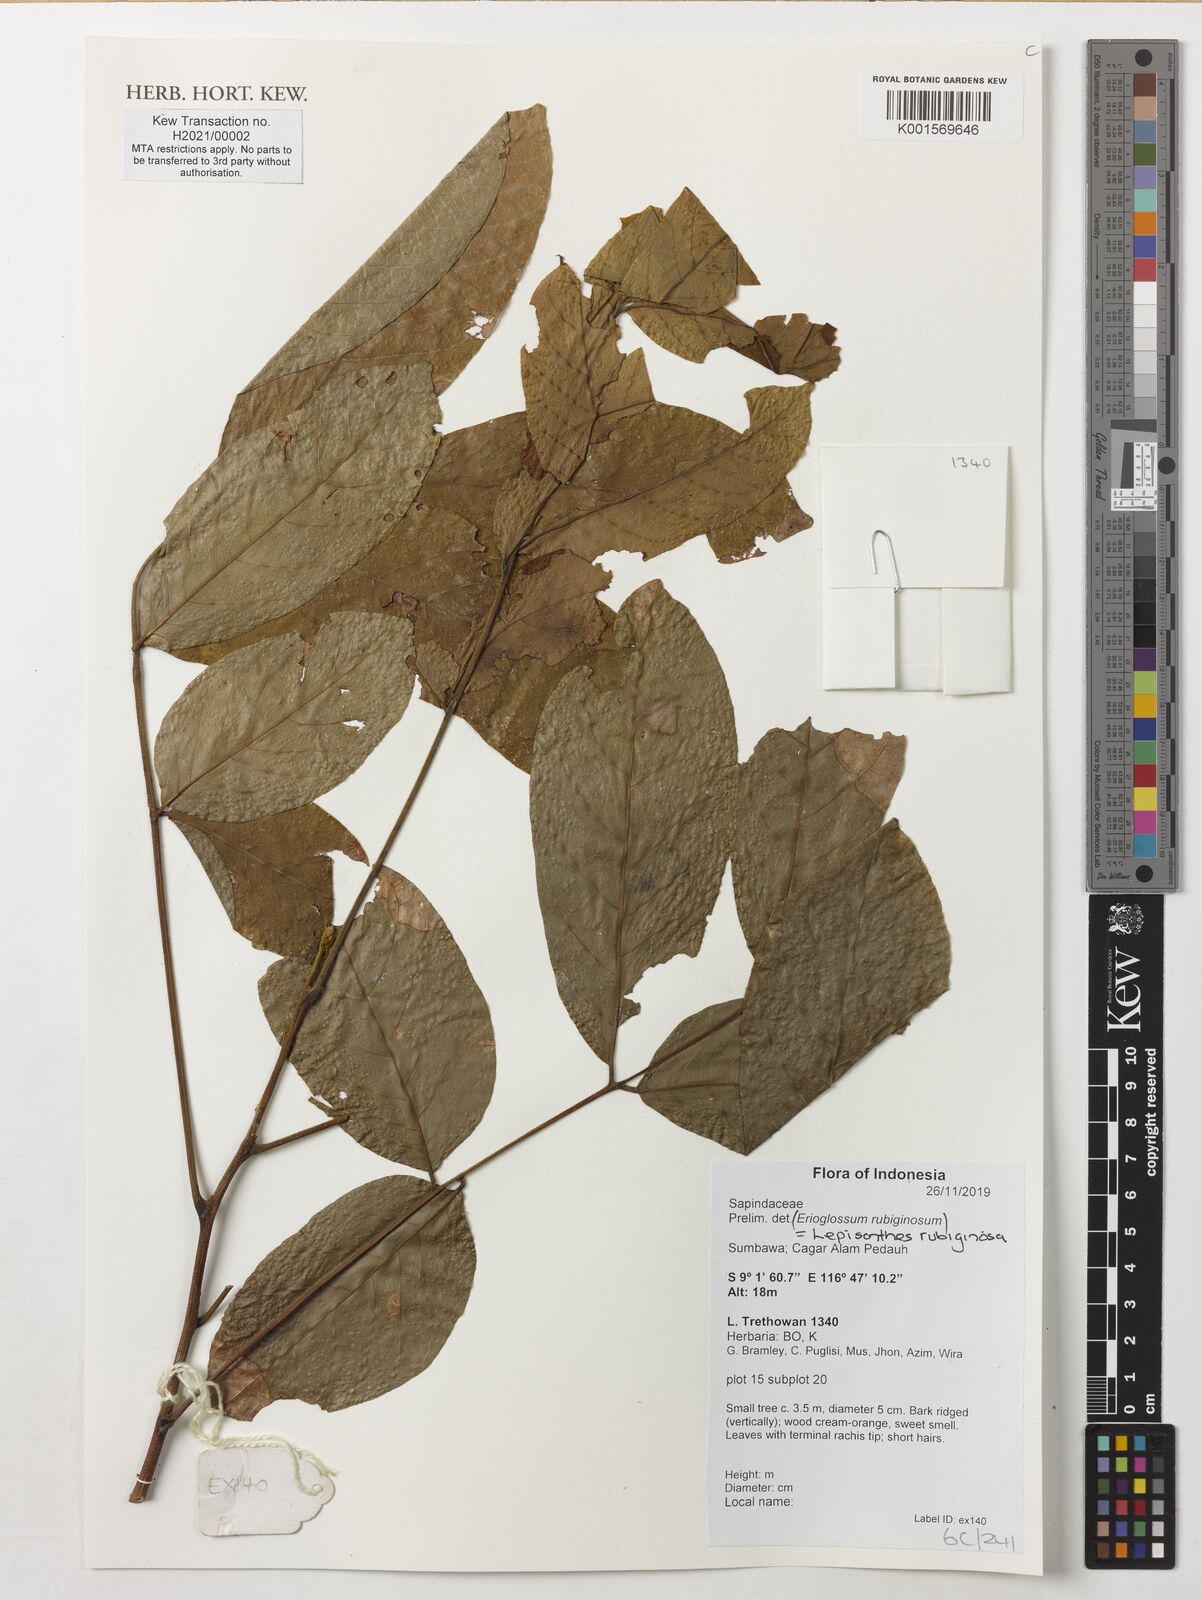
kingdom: Plantae
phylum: Tracheophyta
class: Magnoliopsida
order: Sapindales
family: Sapindaceae
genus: Lepisanthes
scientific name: Lepisanthes rubiginosa
